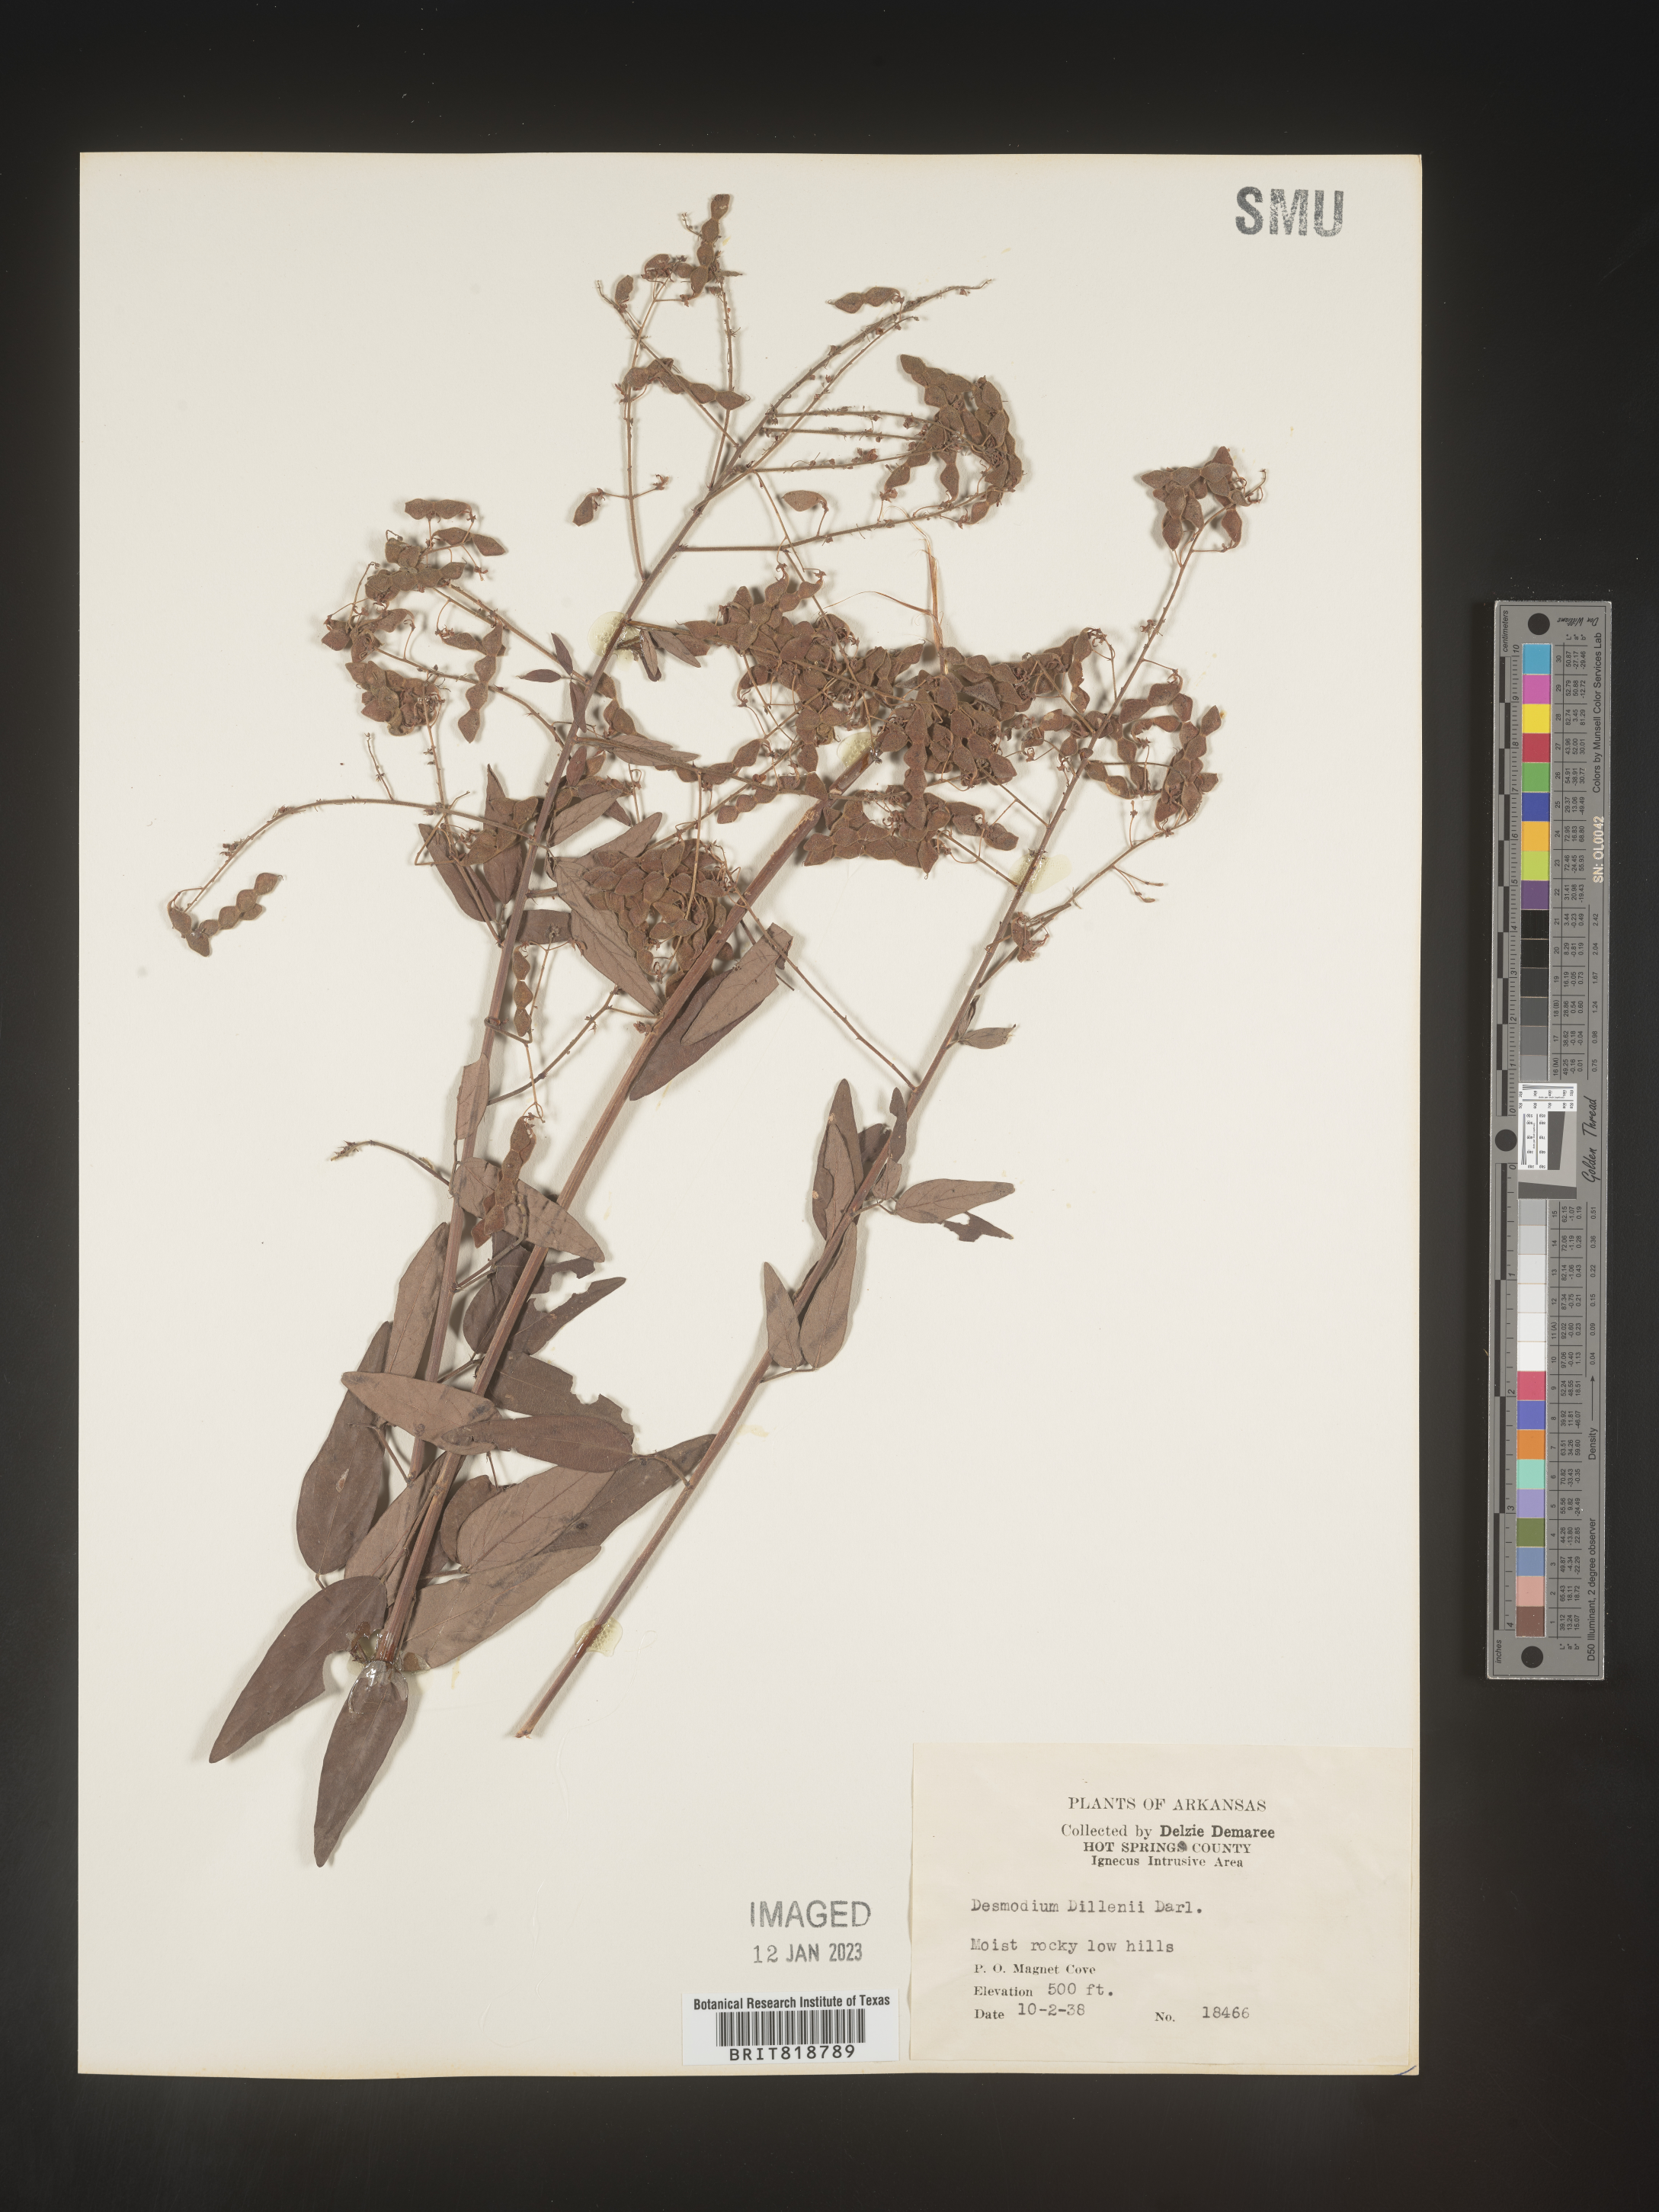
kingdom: Plantae
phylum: Tracheophyta
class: Magnoliopsida
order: Fabales
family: Fabaceae
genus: Desmodium
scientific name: Desmodium perplexum
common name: Perplexed tick trefoil
